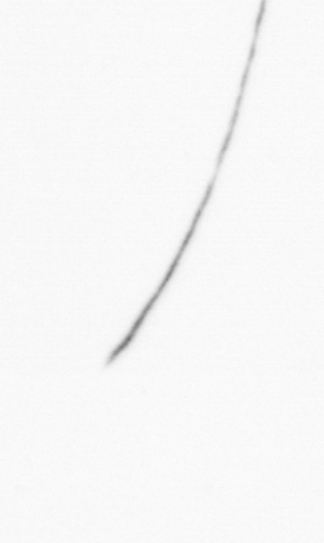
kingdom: Chromista
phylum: Ochrophyta
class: Bacillariophyceae
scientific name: Bacillariophyceae
